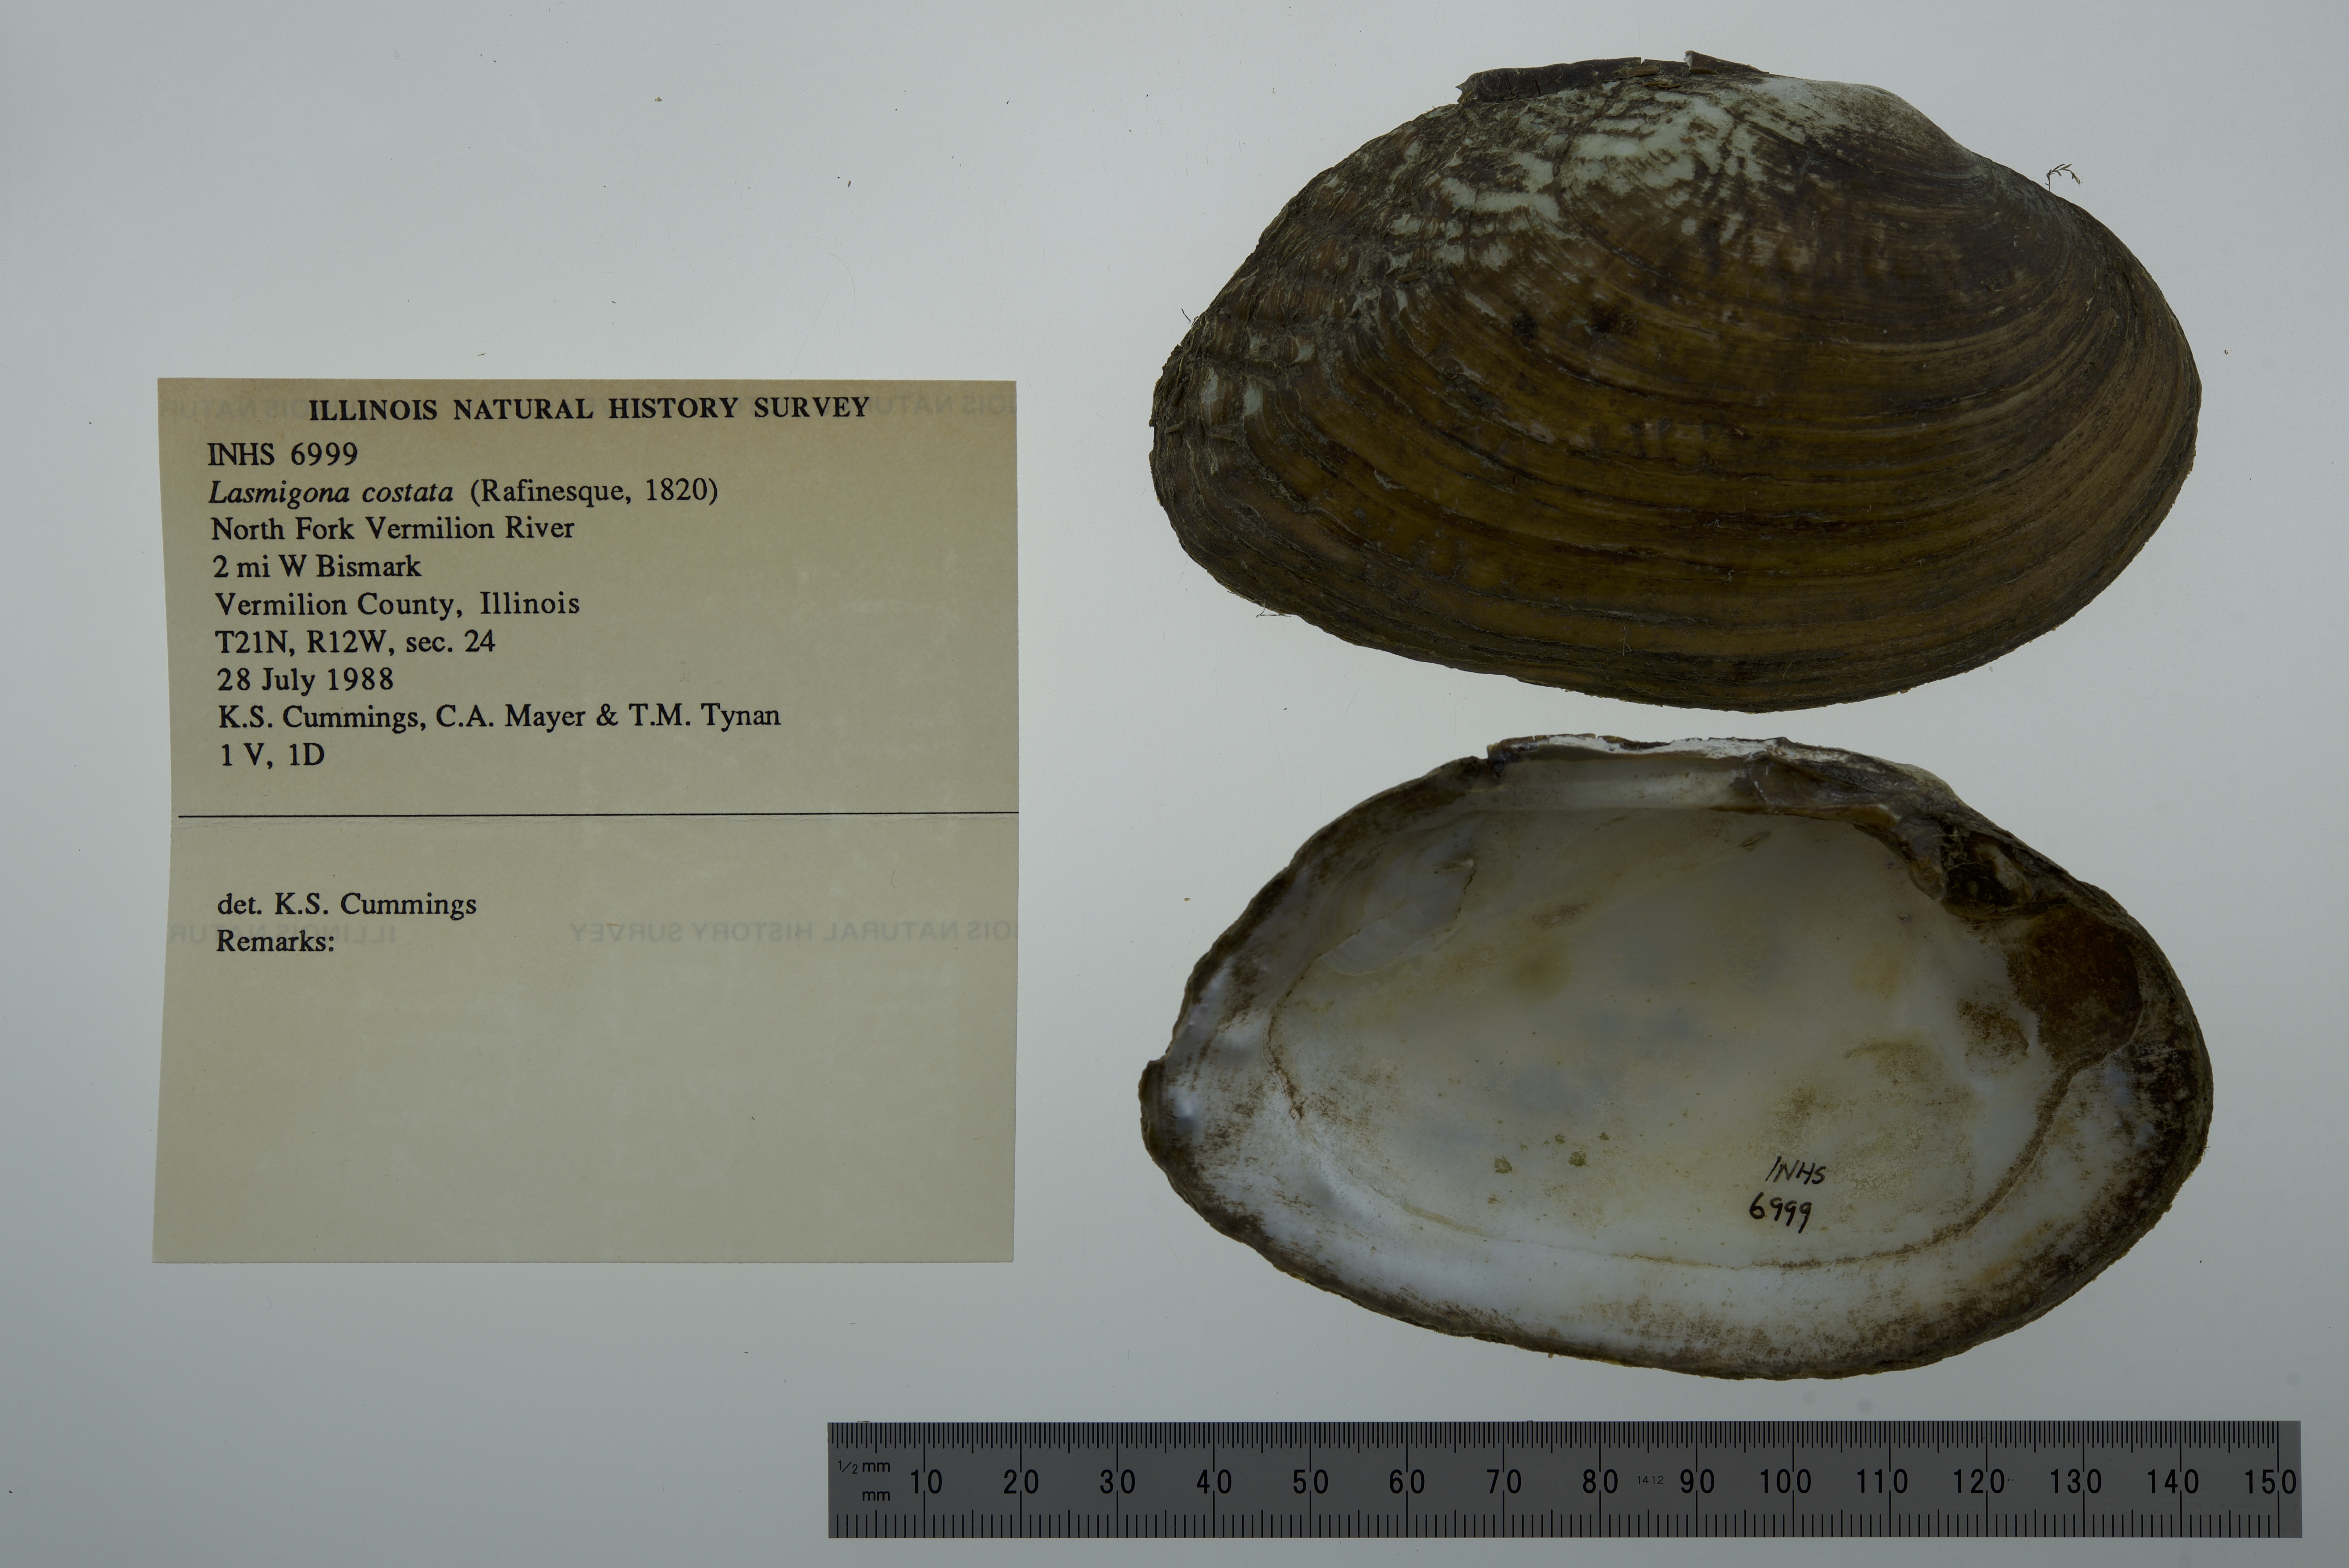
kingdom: Animalia
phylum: Mollusca
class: Bivalvia
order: Unionida
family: Unionidae
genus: Lasmigona
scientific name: Lasmigona costata
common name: Flutedshell
